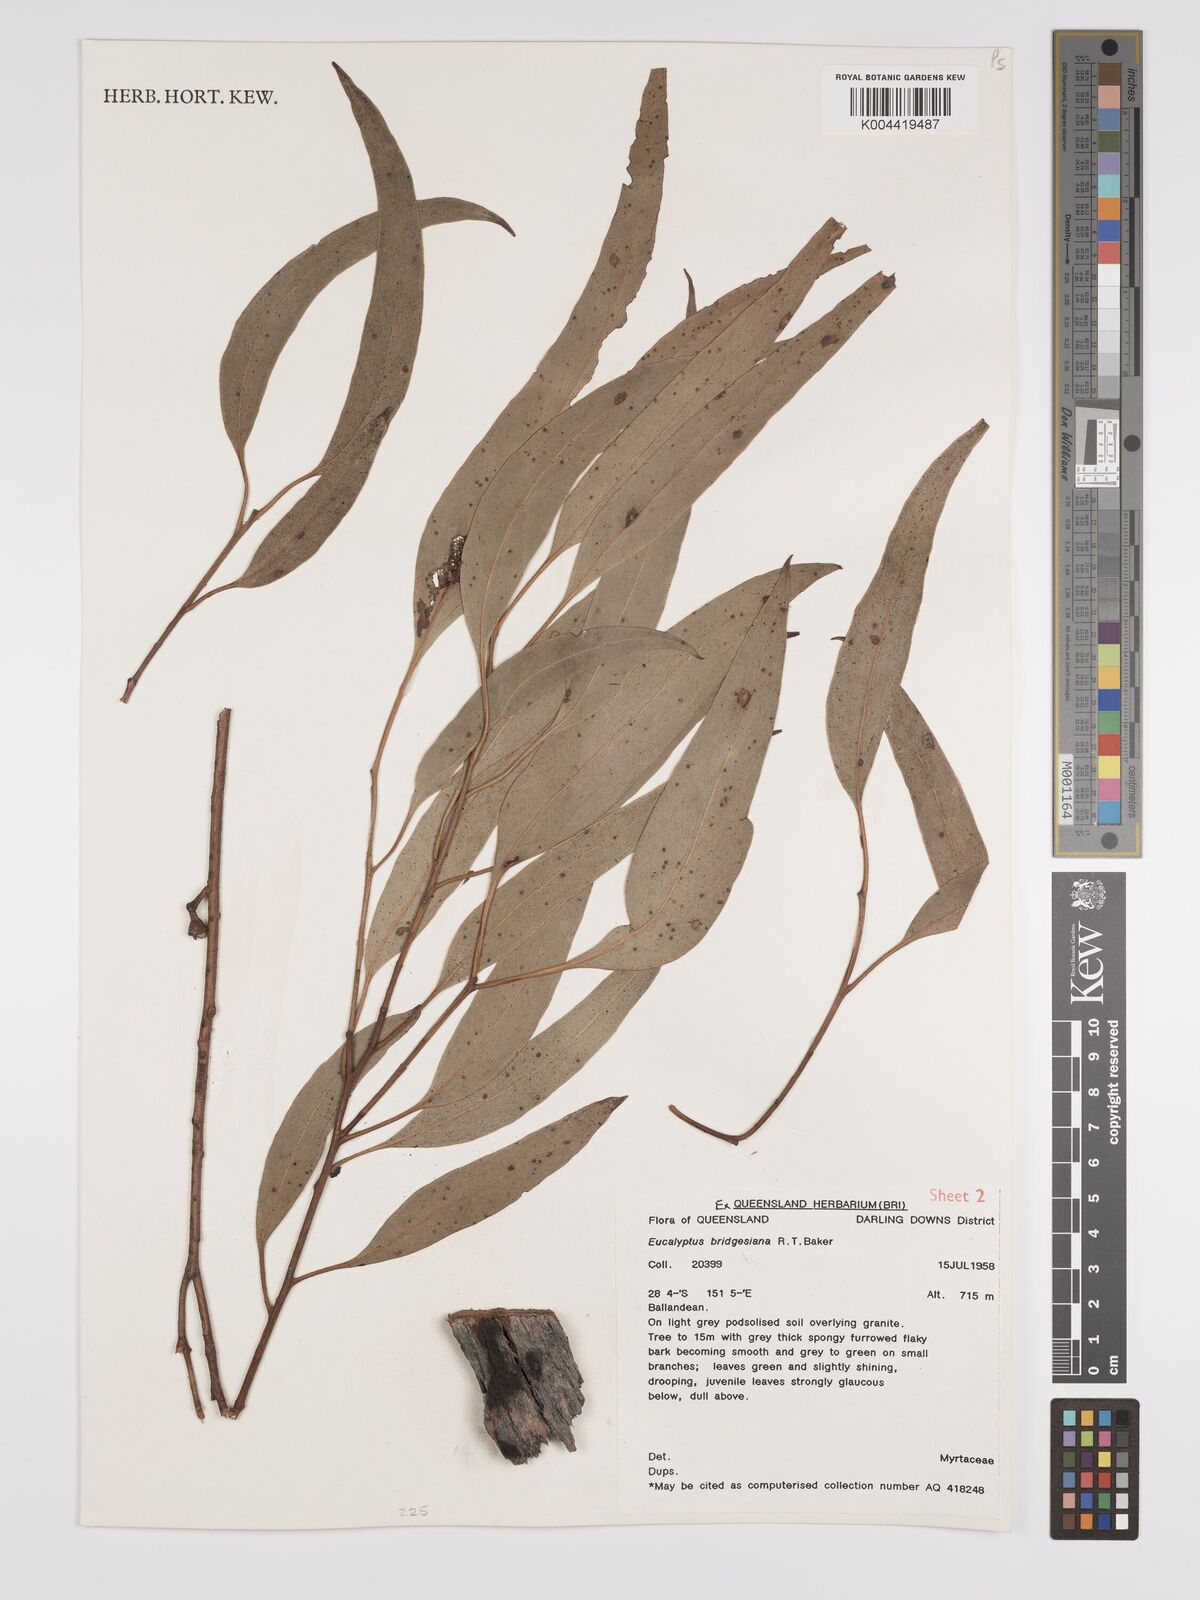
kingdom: Plantae
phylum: Tracheophyta
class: Magnoliopsida
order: Myrtales
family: Myrtaceae
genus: Eucalyptus
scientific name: Eucalyptus bridgesiana
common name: Applebox
